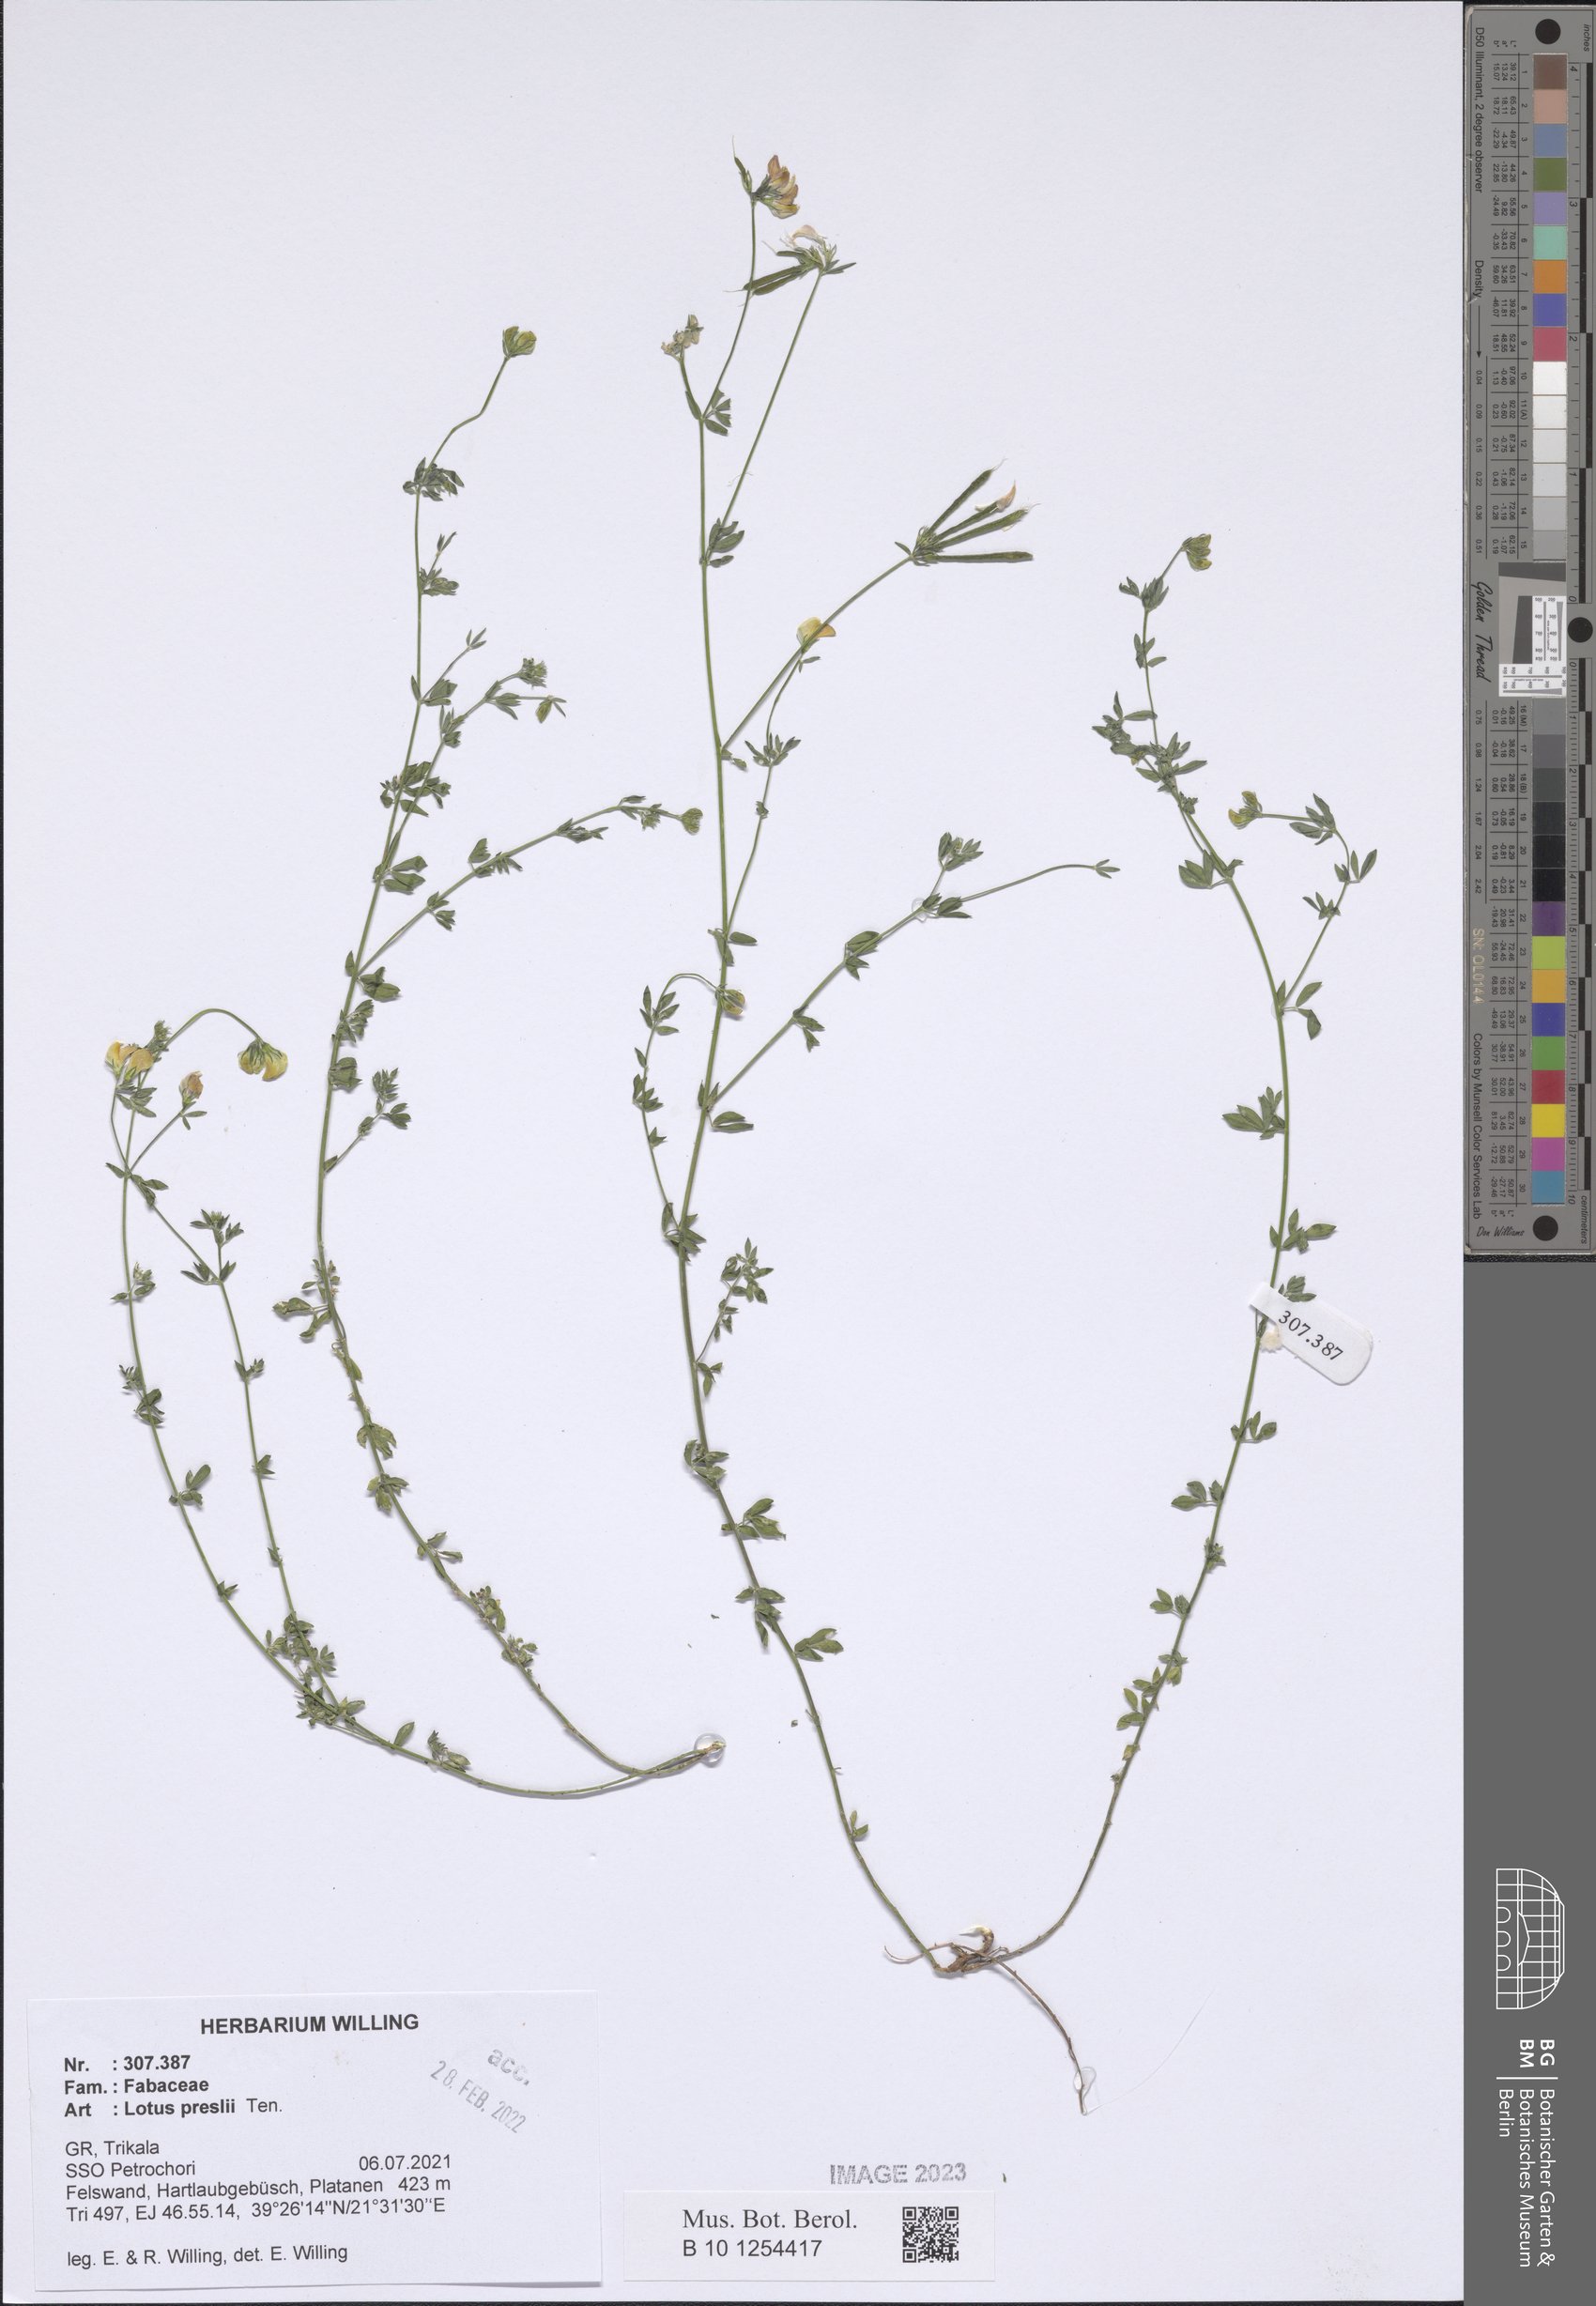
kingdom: Plantae
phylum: Tracheophyta
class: Magnoliopsida
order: Fabales
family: Fabaceae
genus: Lotus
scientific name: Lotus corniculatus
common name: Common bird's-foot-trefoil
